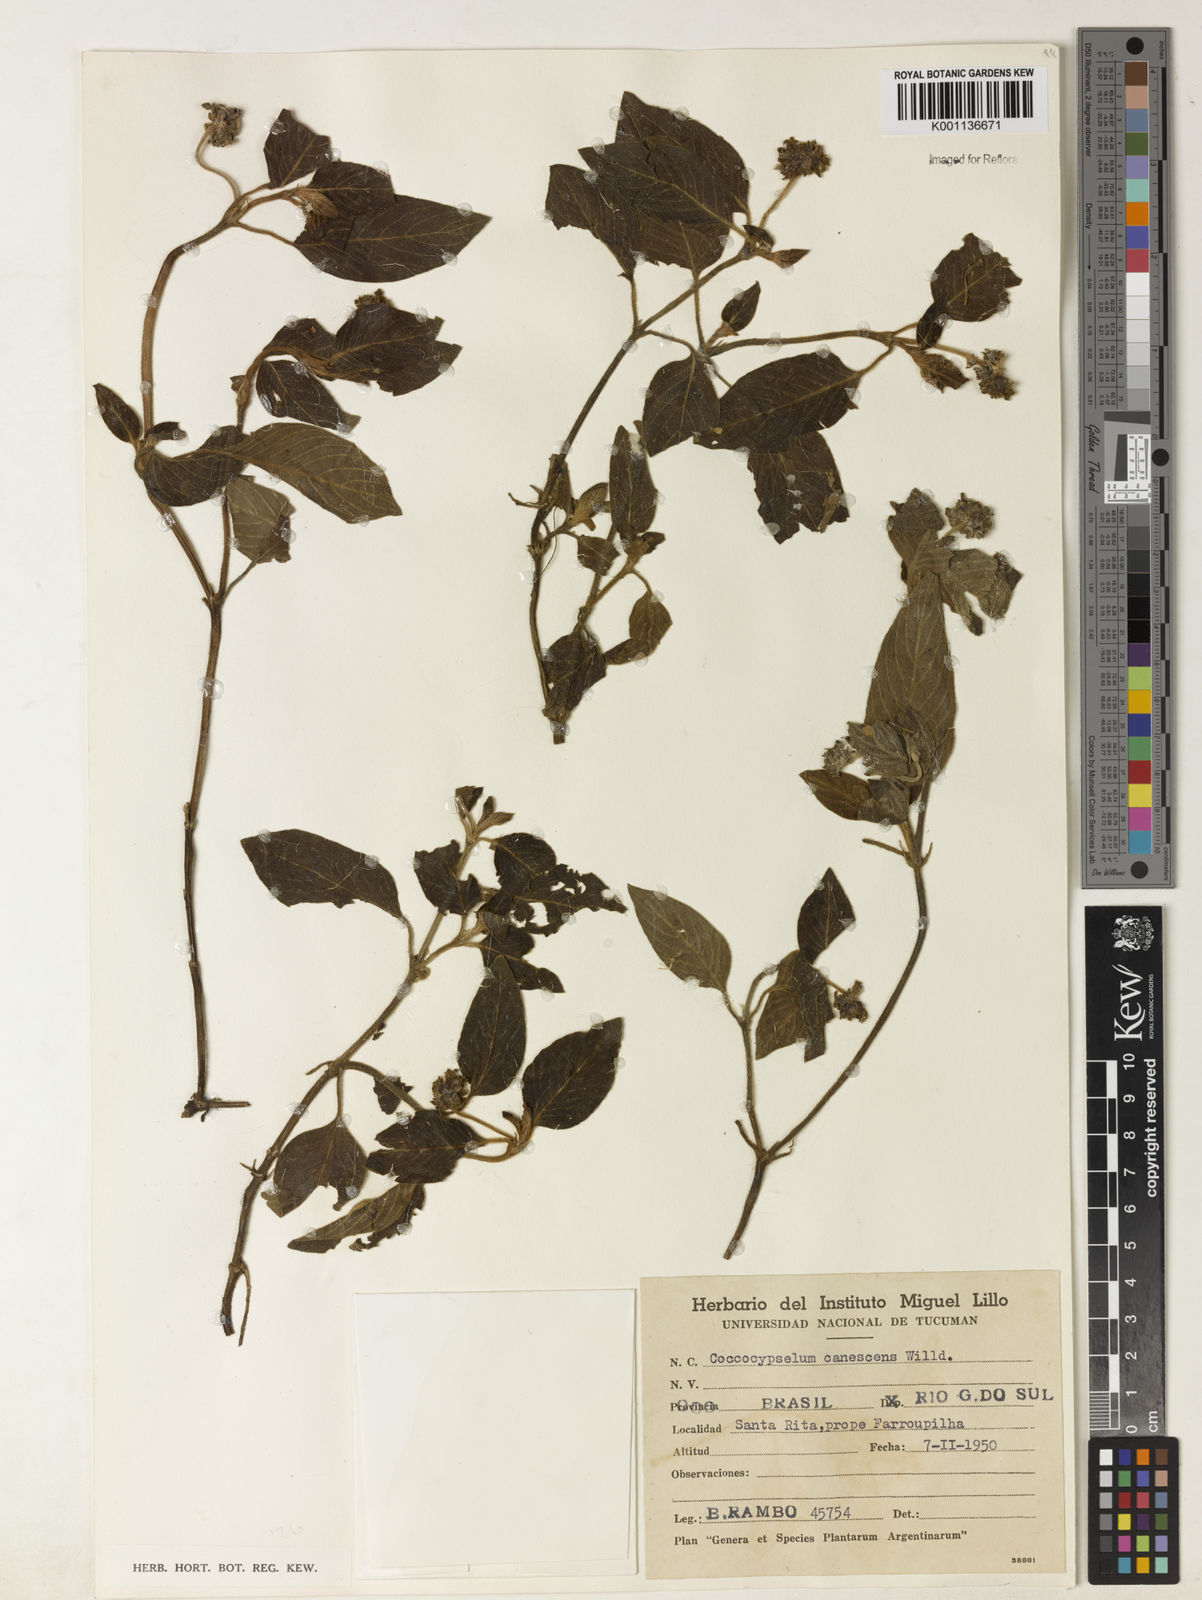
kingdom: Plantae
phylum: Tracheophyta
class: Magnoliopsida
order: Gentianales
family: Rubiaceae
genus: Coccocypselum
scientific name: Coccocypselum lanceolatum
